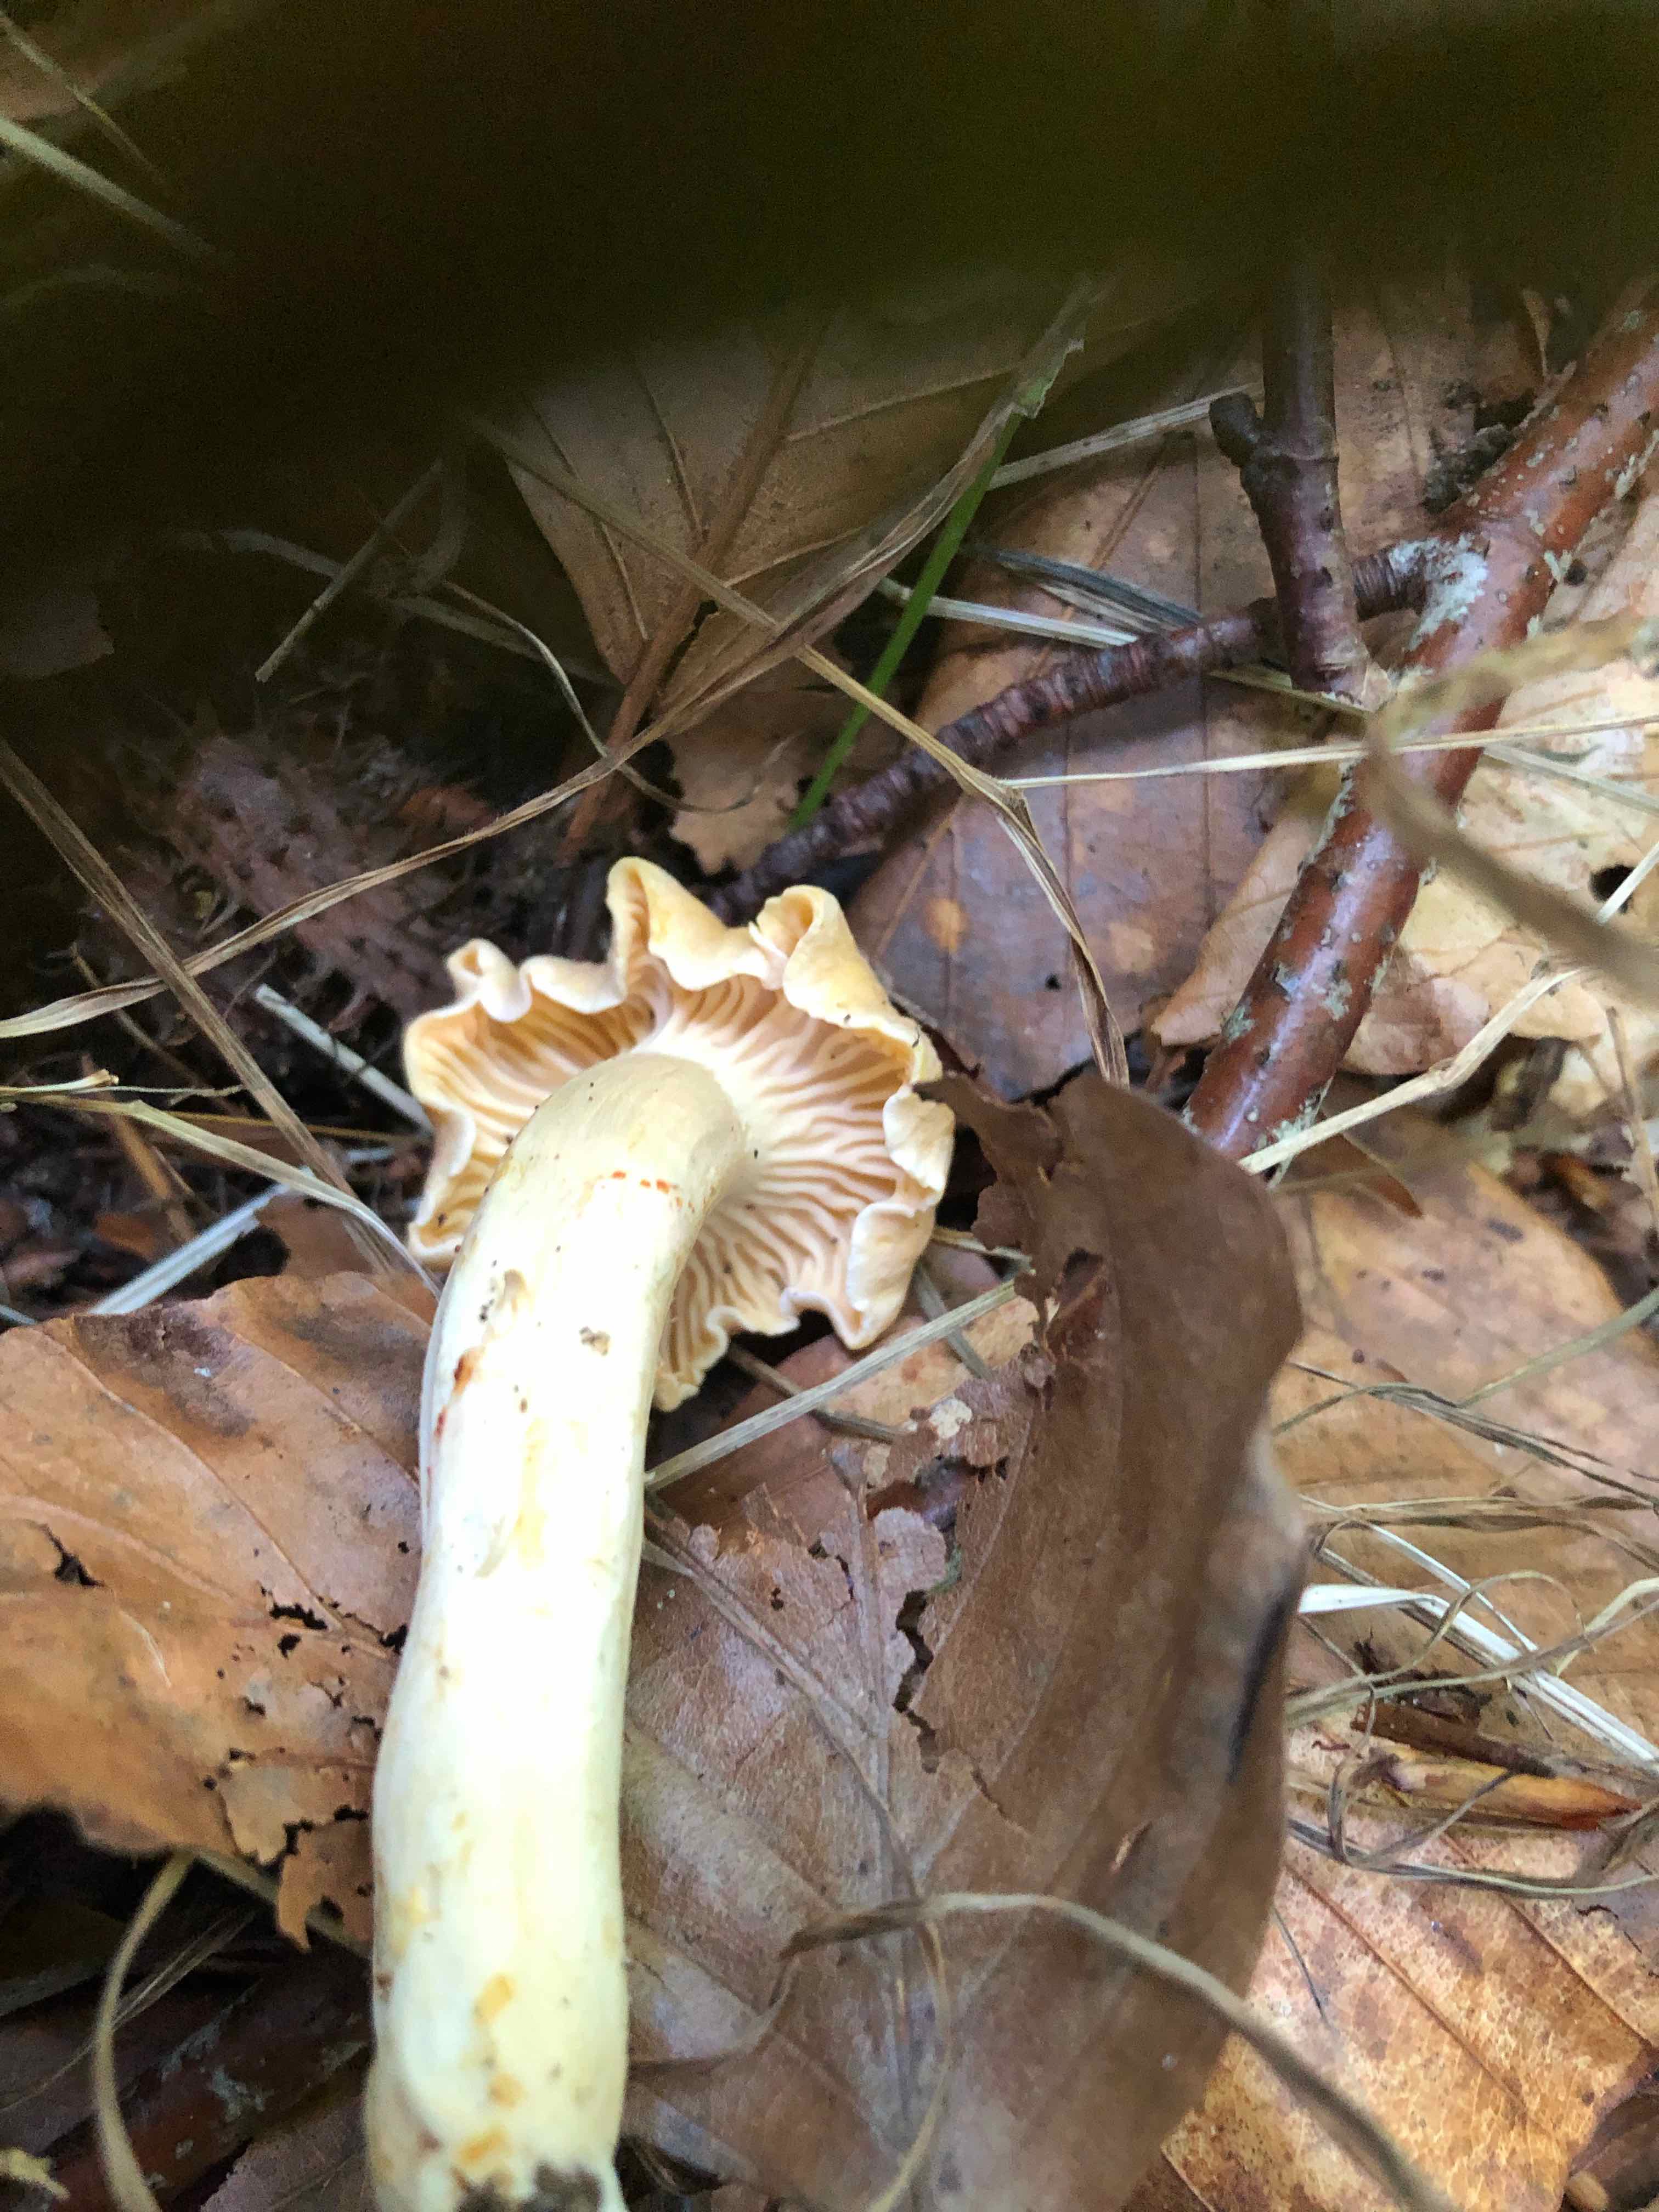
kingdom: Fungi
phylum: Basidiomycota
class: Agaricomycetes
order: Cantharellales
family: Hydnaceae
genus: Cantharellus
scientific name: Cantharellus amethysteus
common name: ametyst-kantarel
